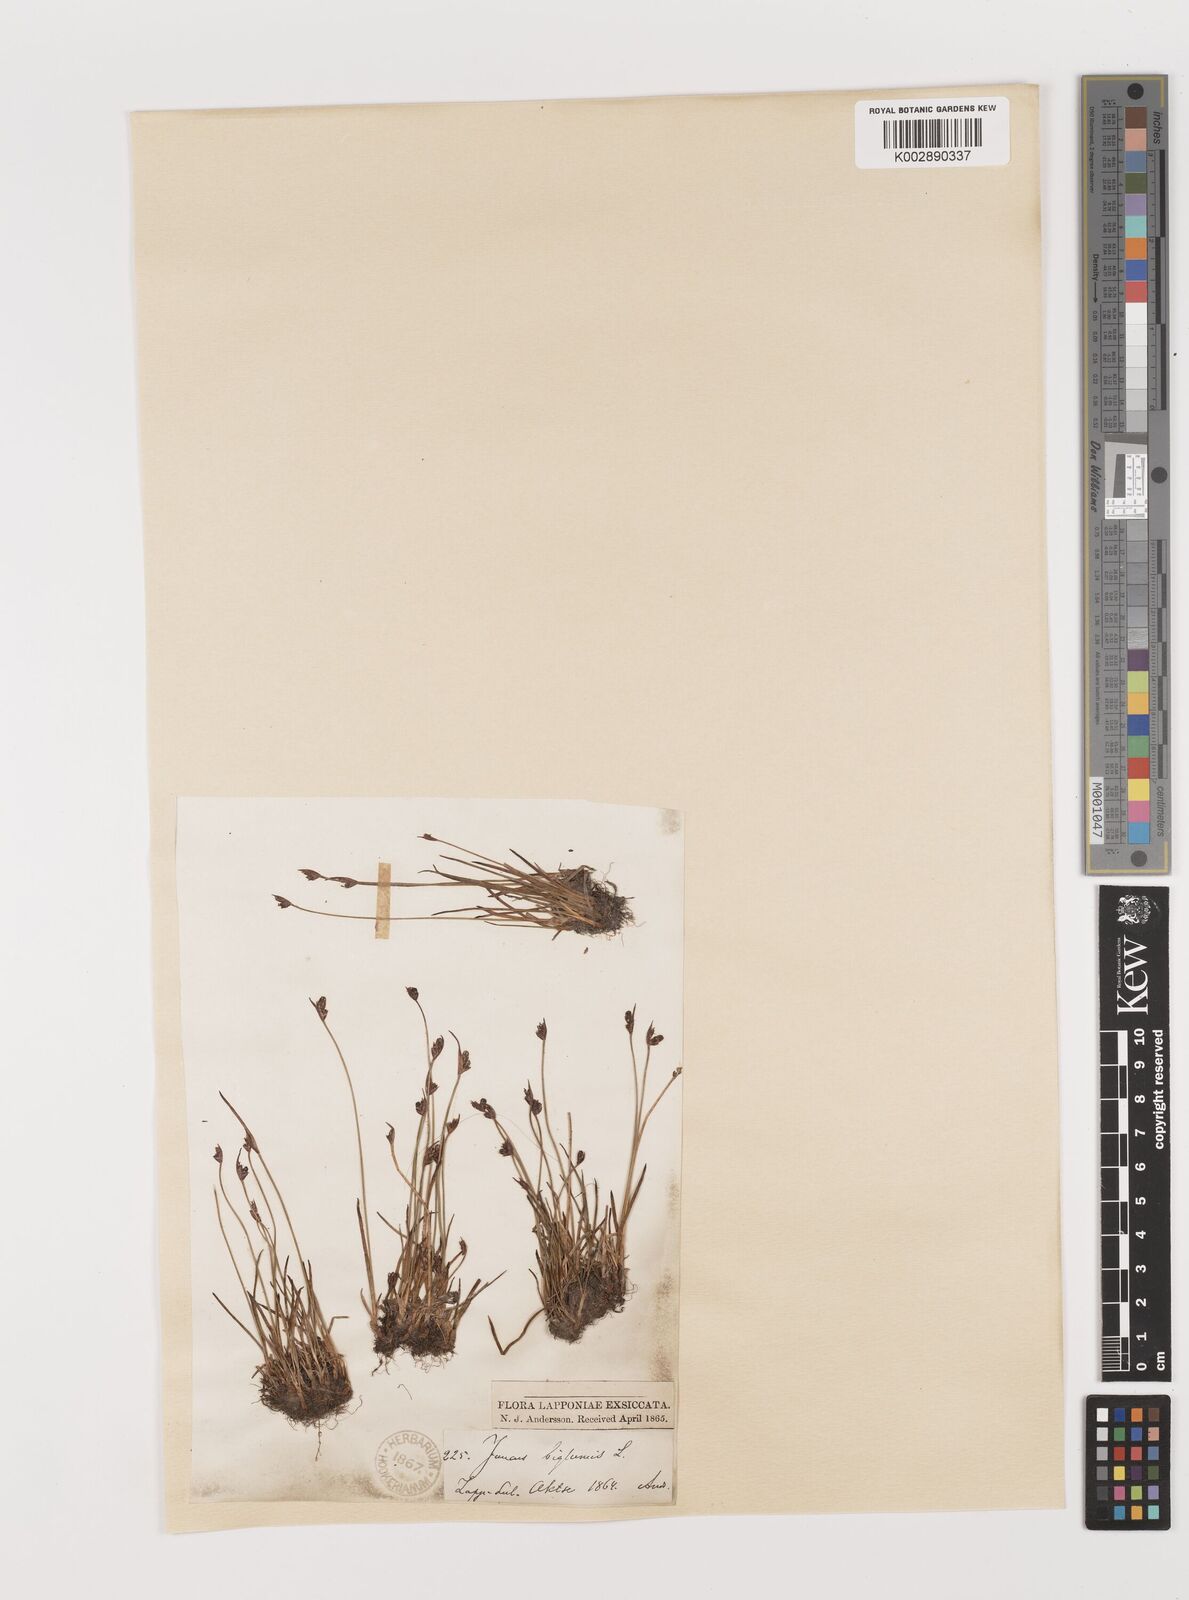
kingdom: Plantae
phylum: Tracheophyta
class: Liliopsida
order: Poales
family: Juncaceae
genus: Juncus
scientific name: Juncus biglumis
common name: Two-flowered rush
